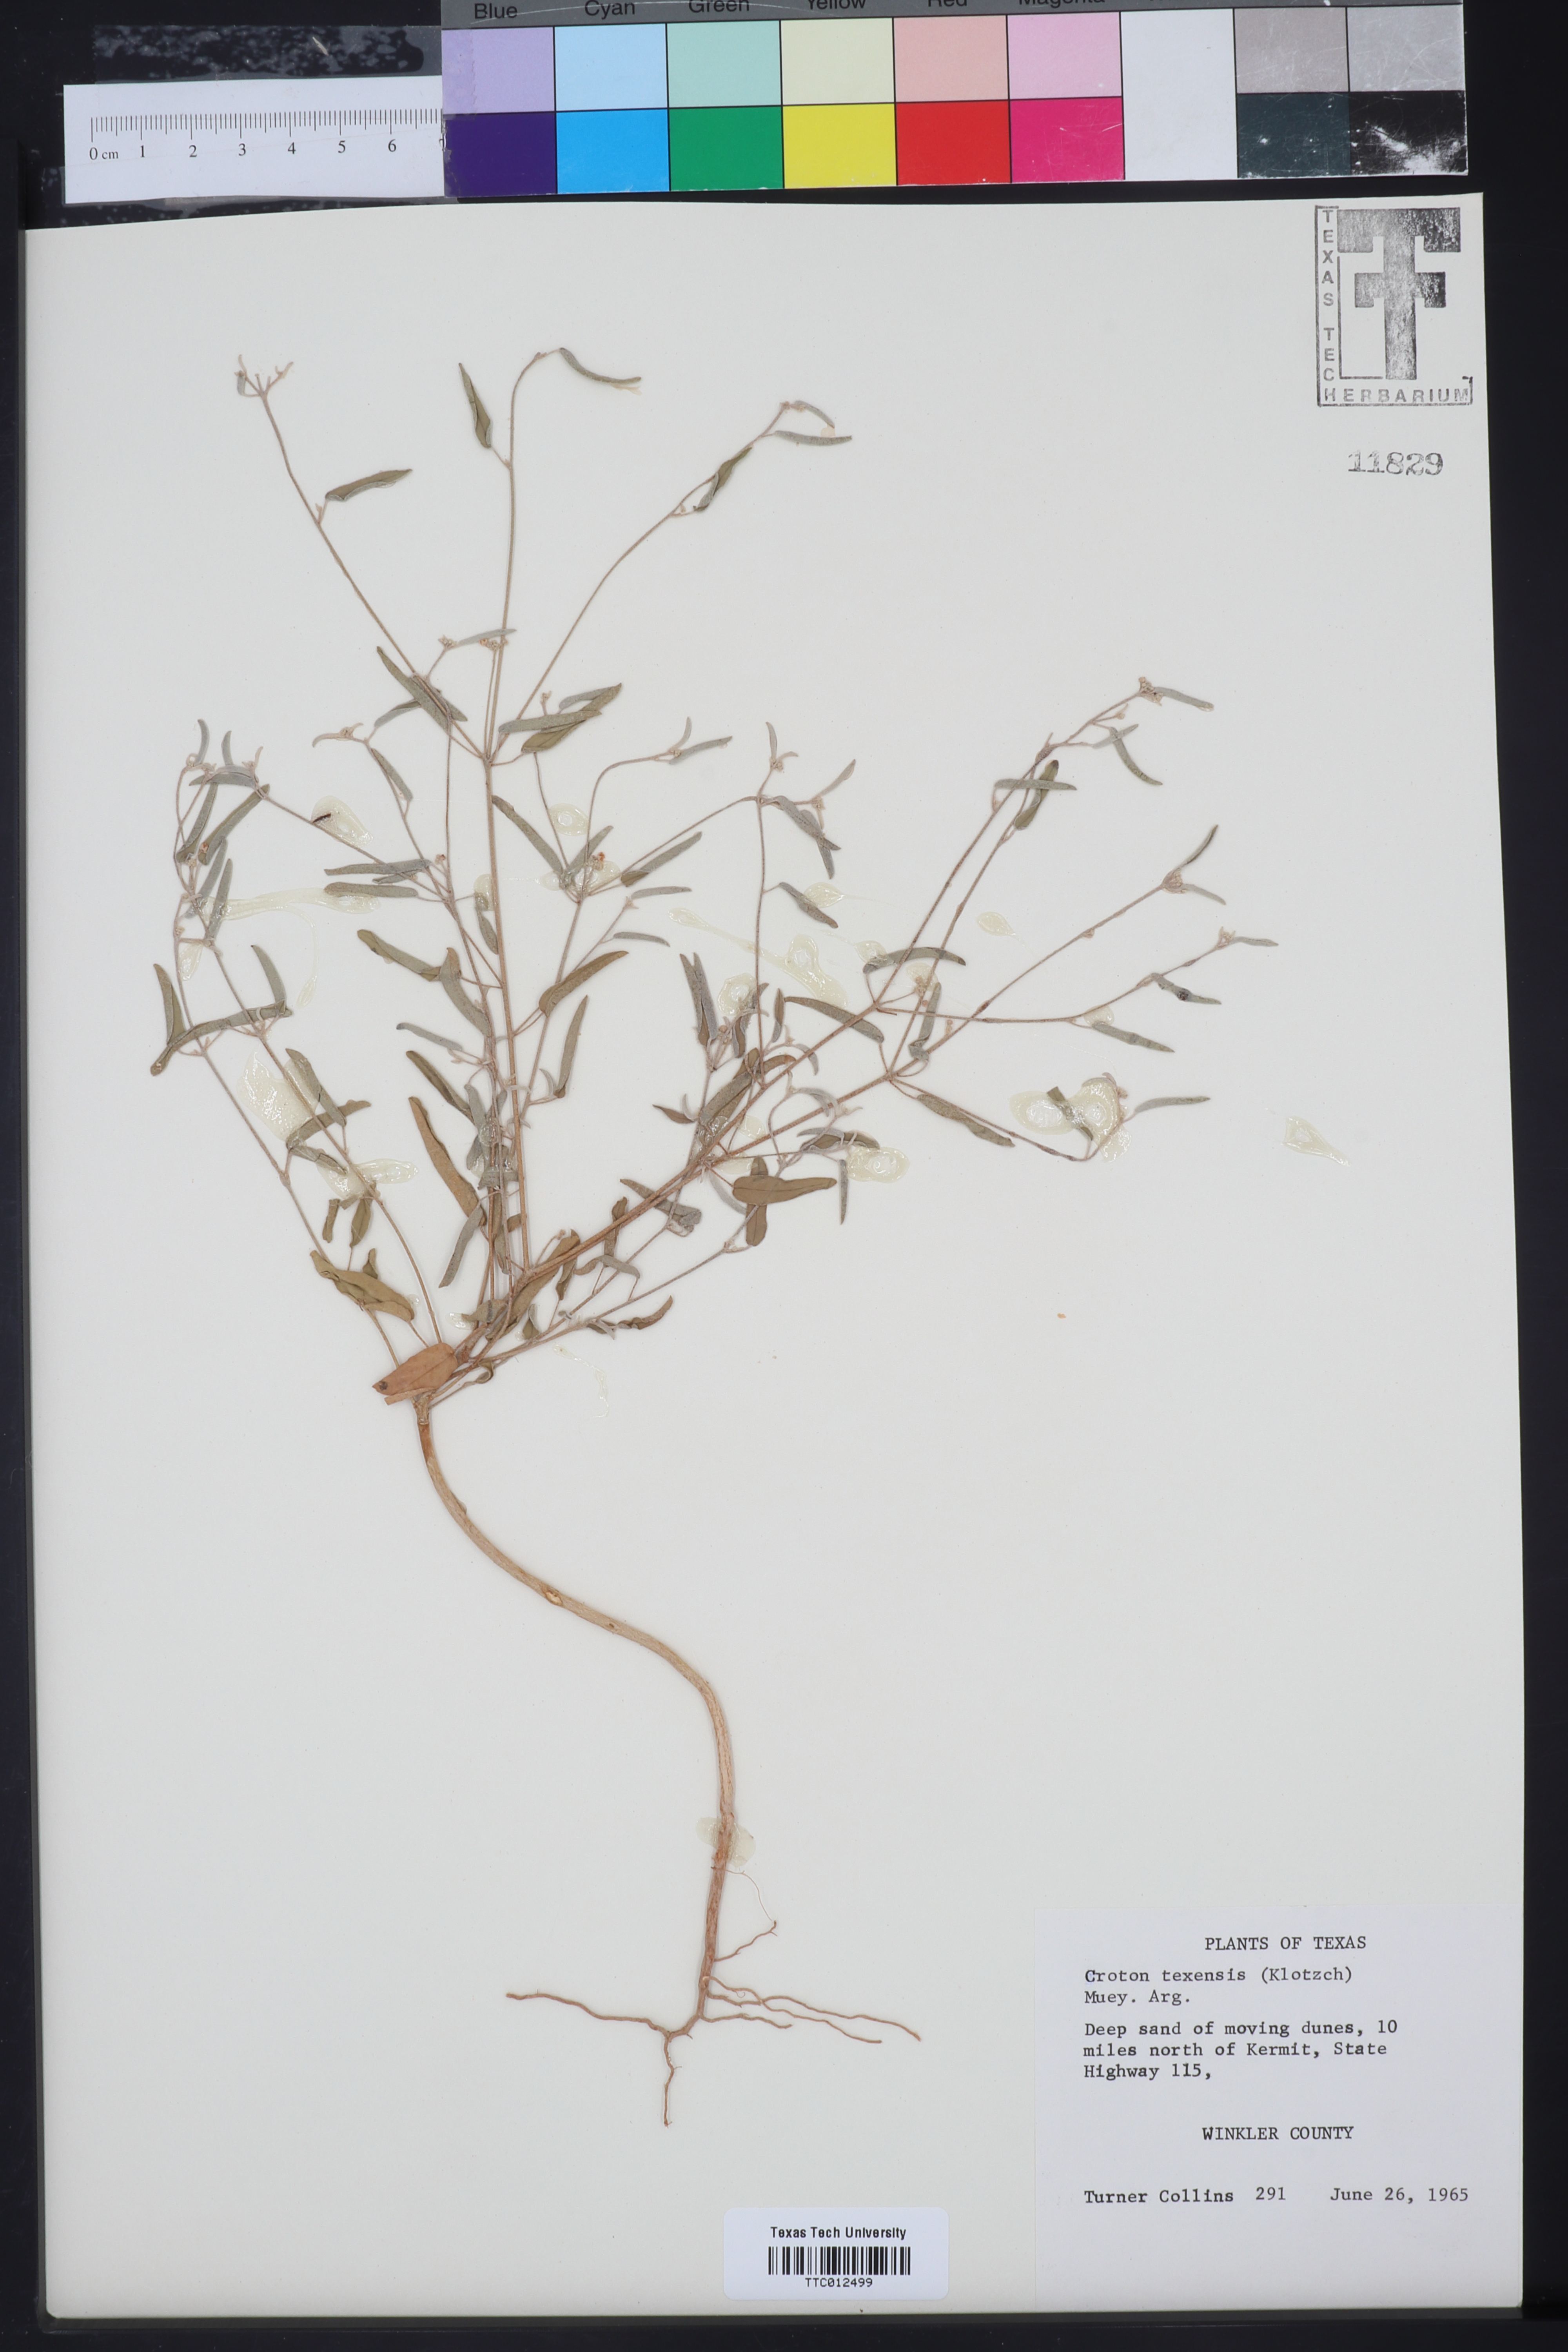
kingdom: Plantae
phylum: Tracheophyta
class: Magnoliopsida
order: Malpighiales
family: Euphorbiaceae
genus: Croton
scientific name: Croton texensis
